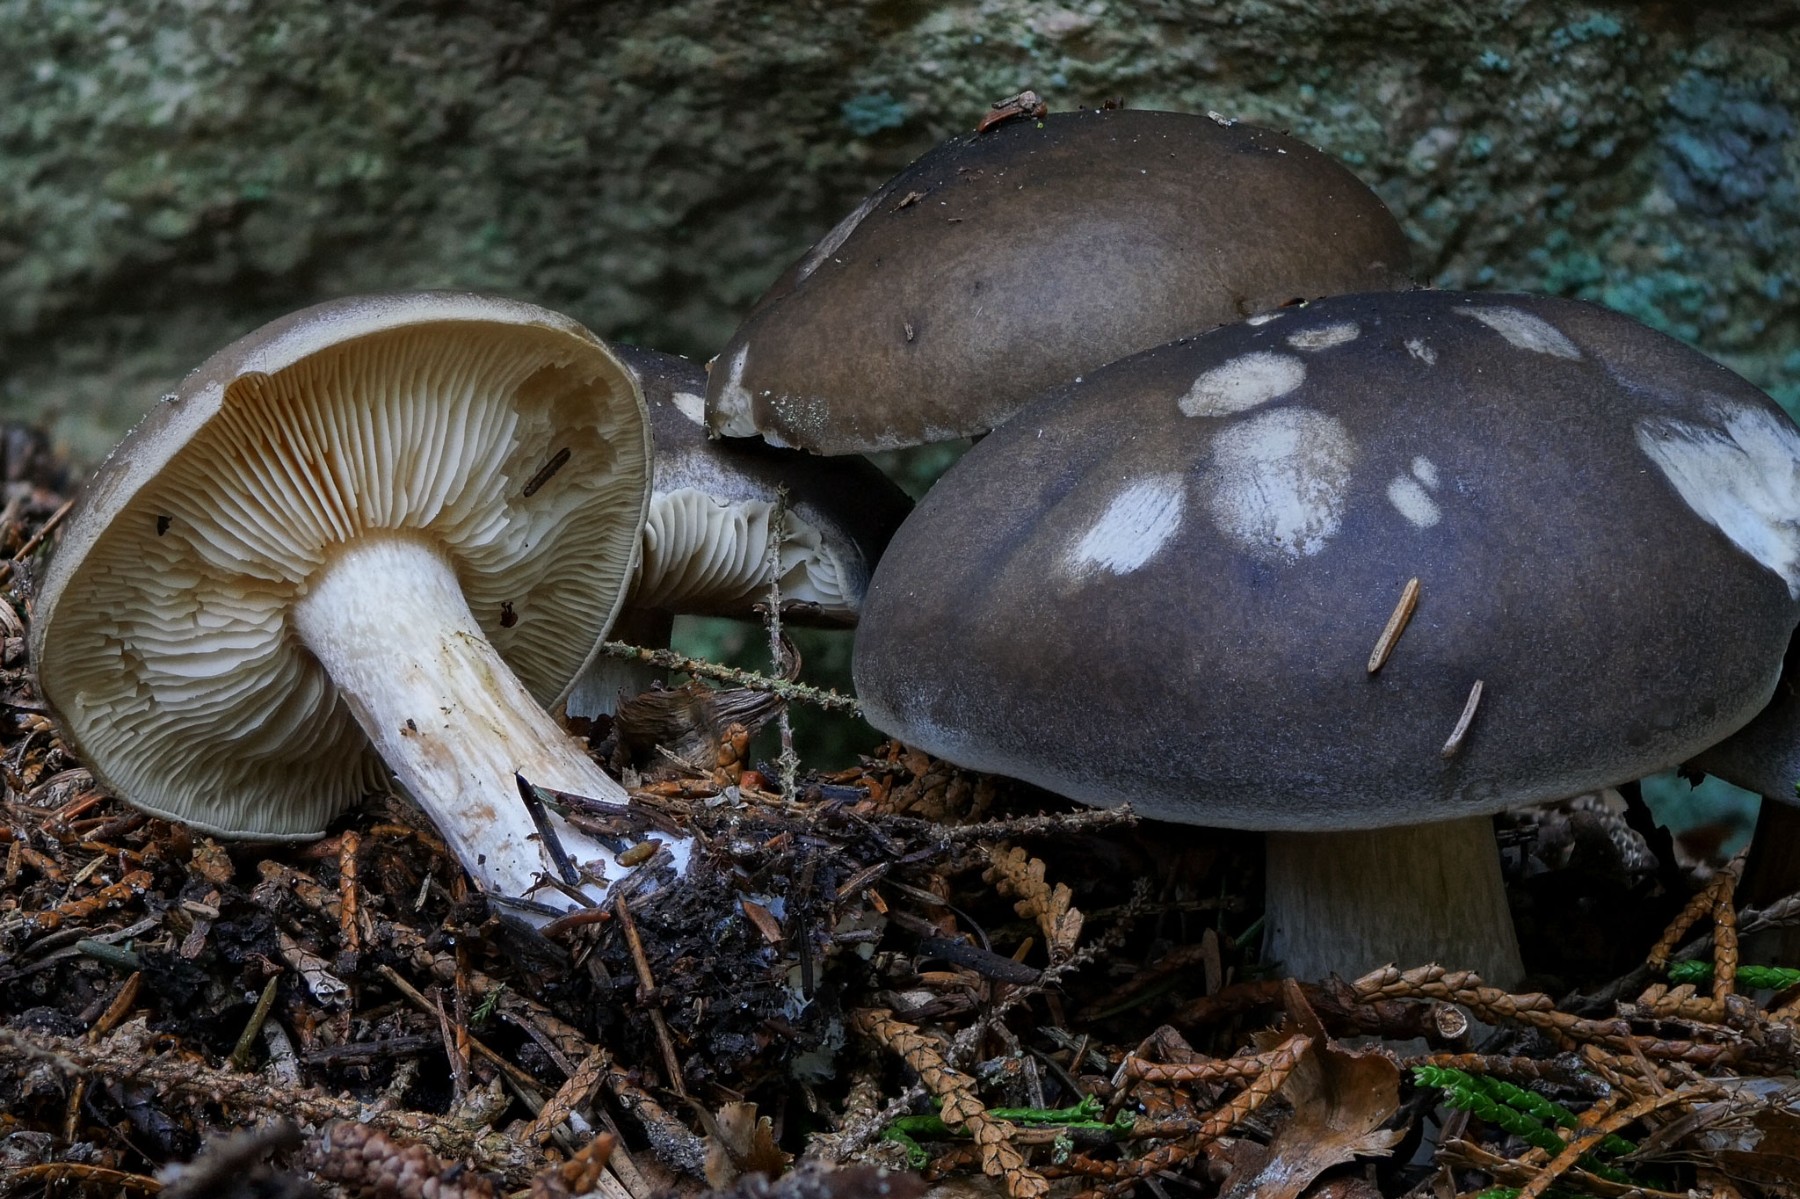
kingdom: Fungi
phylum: Basidiomycota
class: Agaricomycetes
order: Agaricales
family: Tricholomataceae
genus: Melanoleuca
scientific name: Melanoleuca cognata
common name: gyldengrå munkehat
